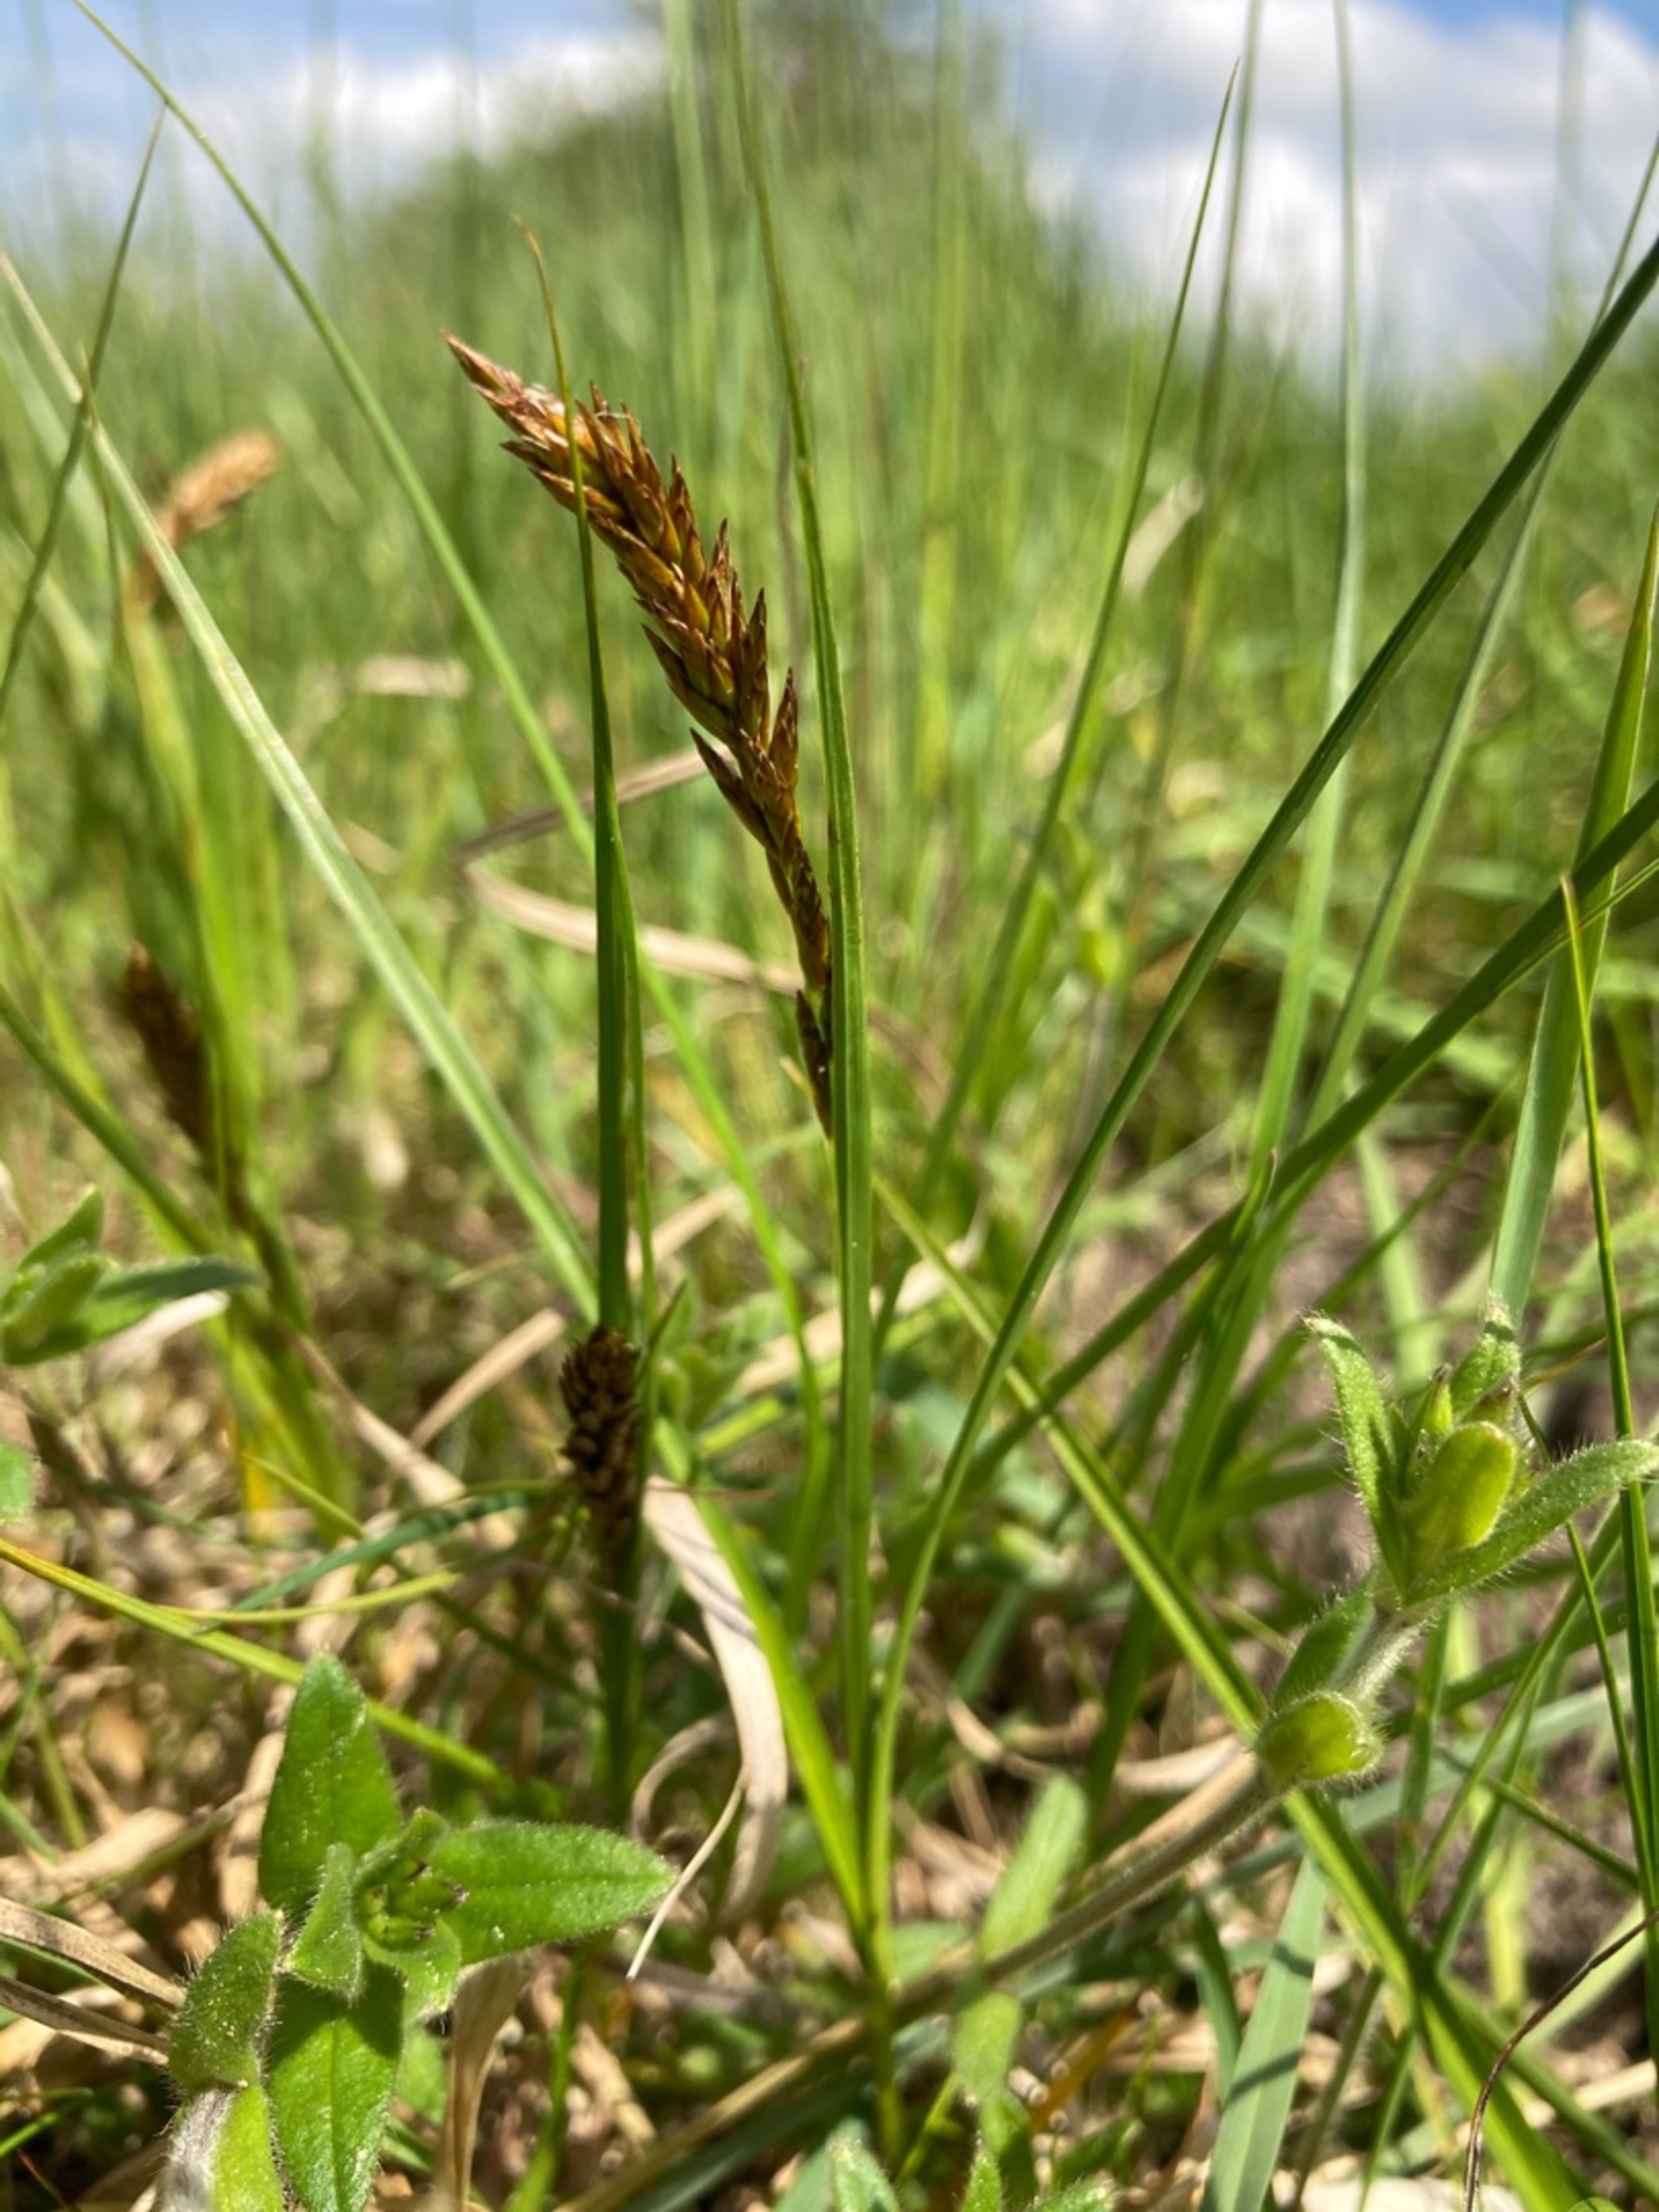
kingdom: Plantae
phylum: Tracheophyta
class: Liliopsida
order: Poales
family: Cyperaceae
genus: Carex
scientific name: Carex disticha
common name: Toradet star
